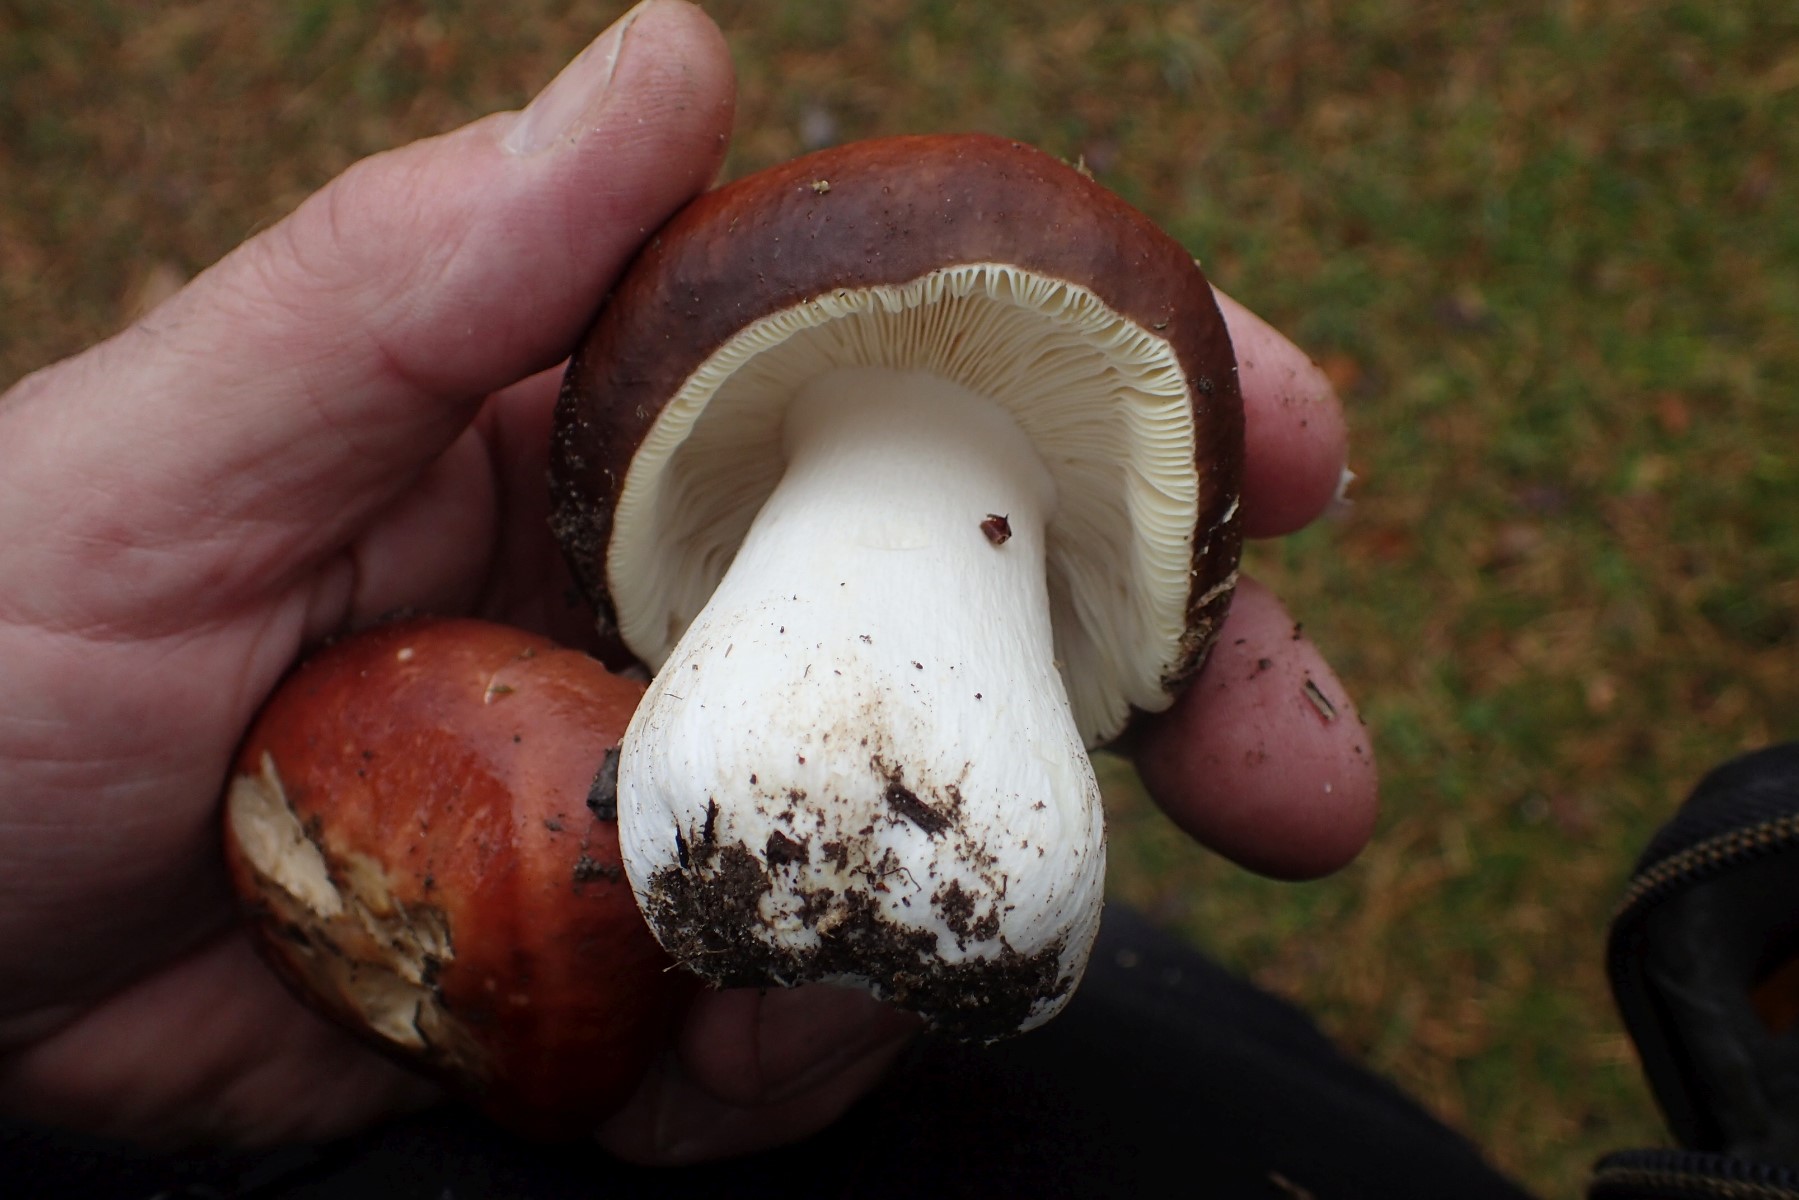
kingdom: Fungi
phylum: Basidiomycota
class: Agaricomycetes
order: Russulales
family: Russulaceae
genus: Russula
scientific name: Russula integra
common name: mandel-skørhat
